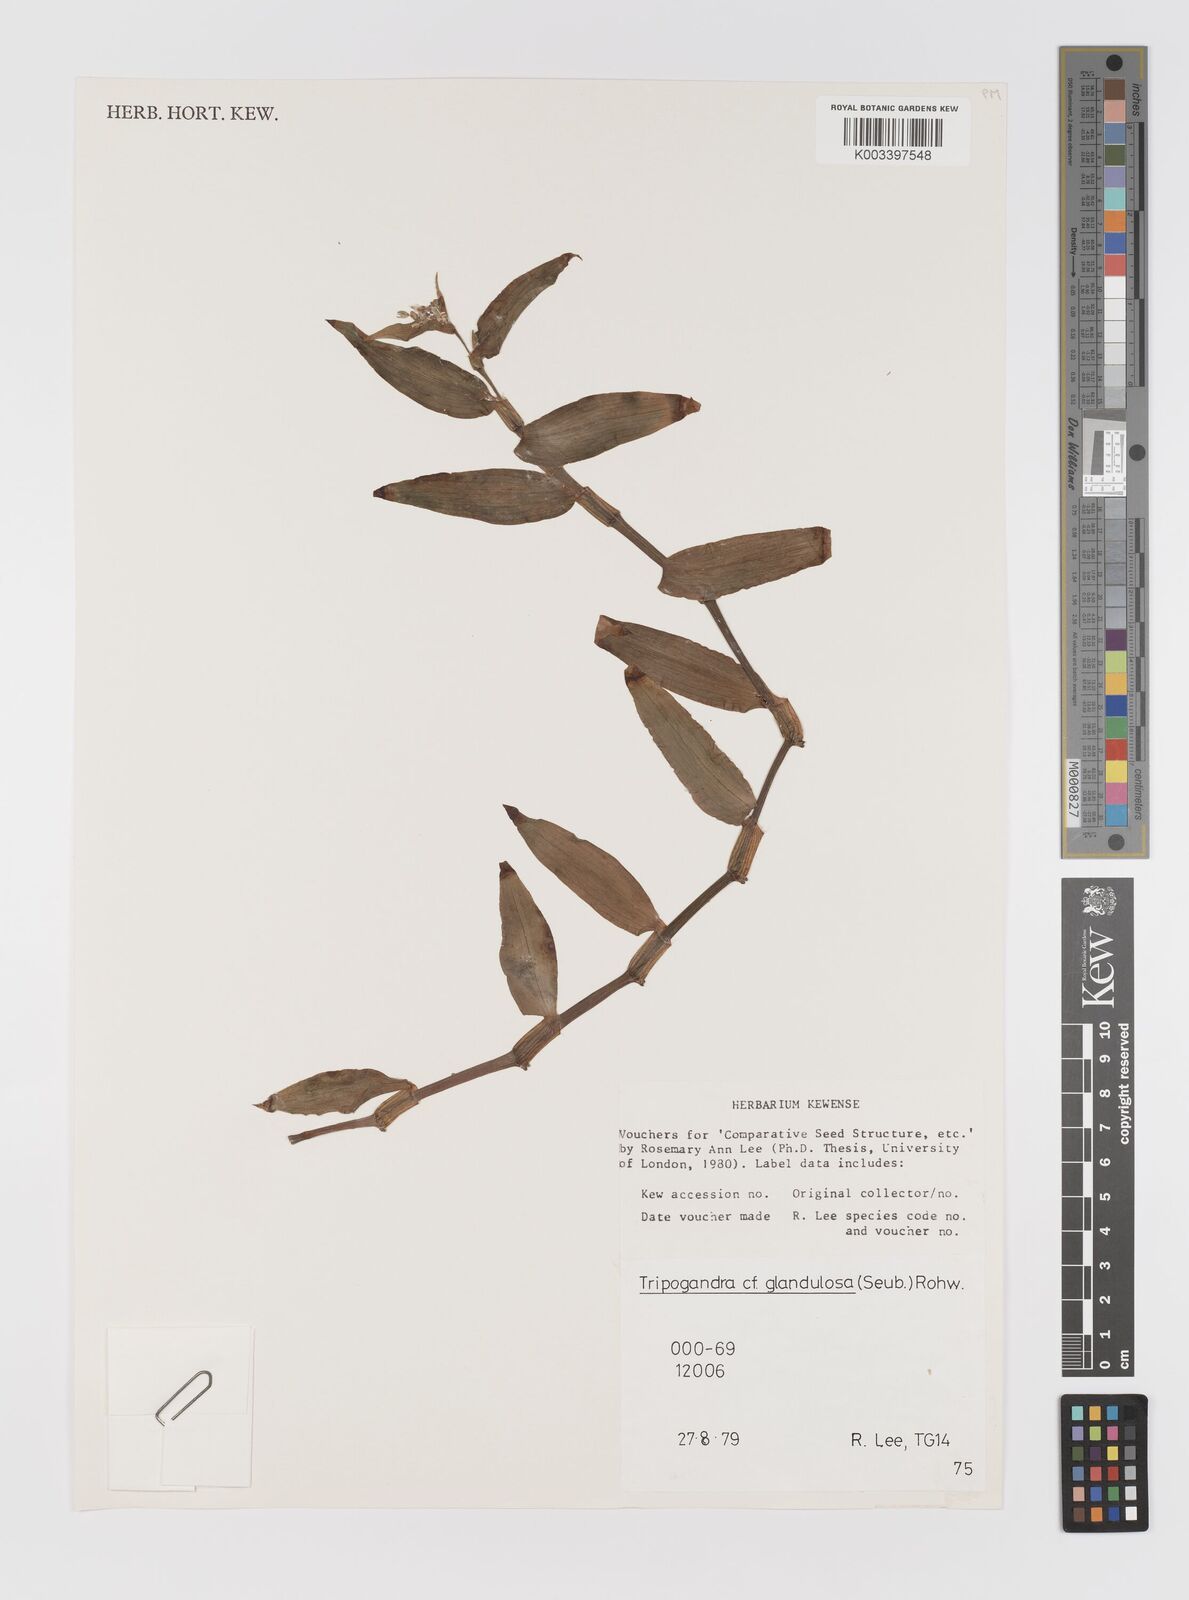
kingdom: Plantae
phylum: Tracheophyta
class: Liliopsida
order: Commelinales
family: Commelinaceae
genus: Callisia
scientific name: Callisia glandulosa
